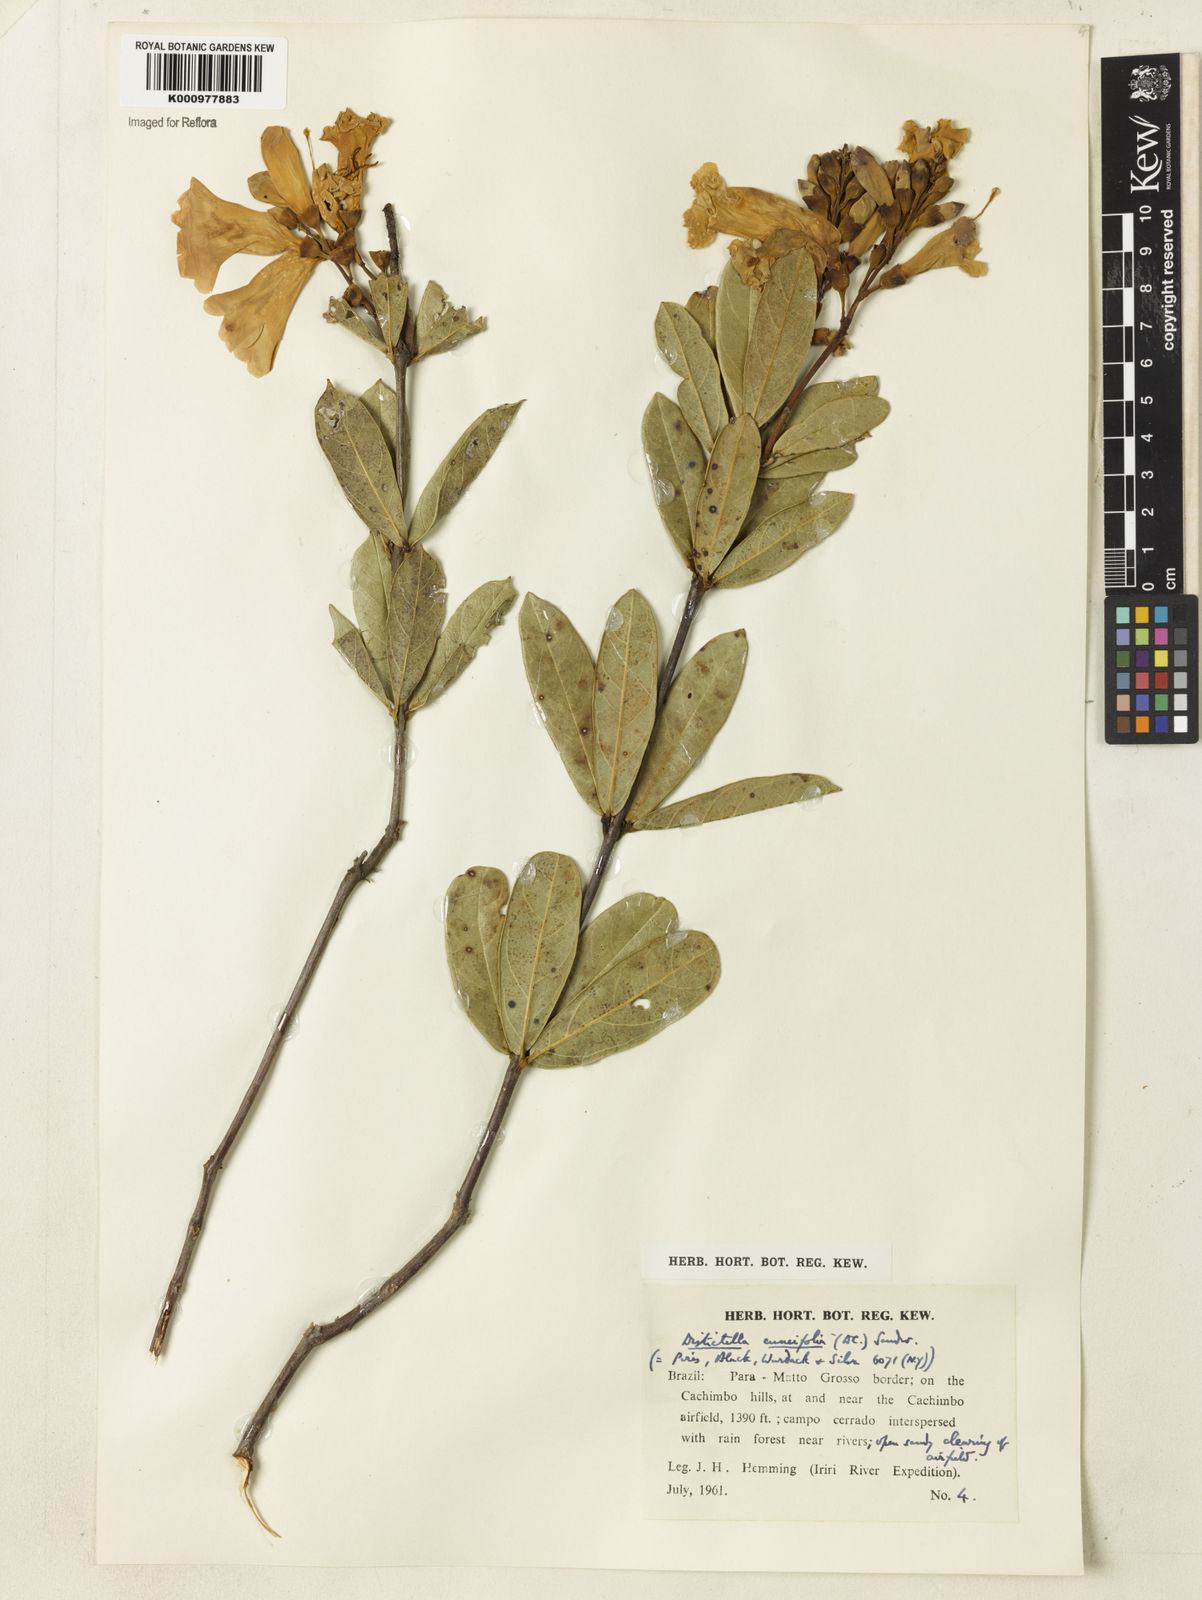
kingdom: Plantae
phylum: Tracheophyta
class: Magnoliopsida
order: Lamiales
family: Bignoniaceae
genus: Amphilophium
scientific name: Amphilophium cuneifolium
